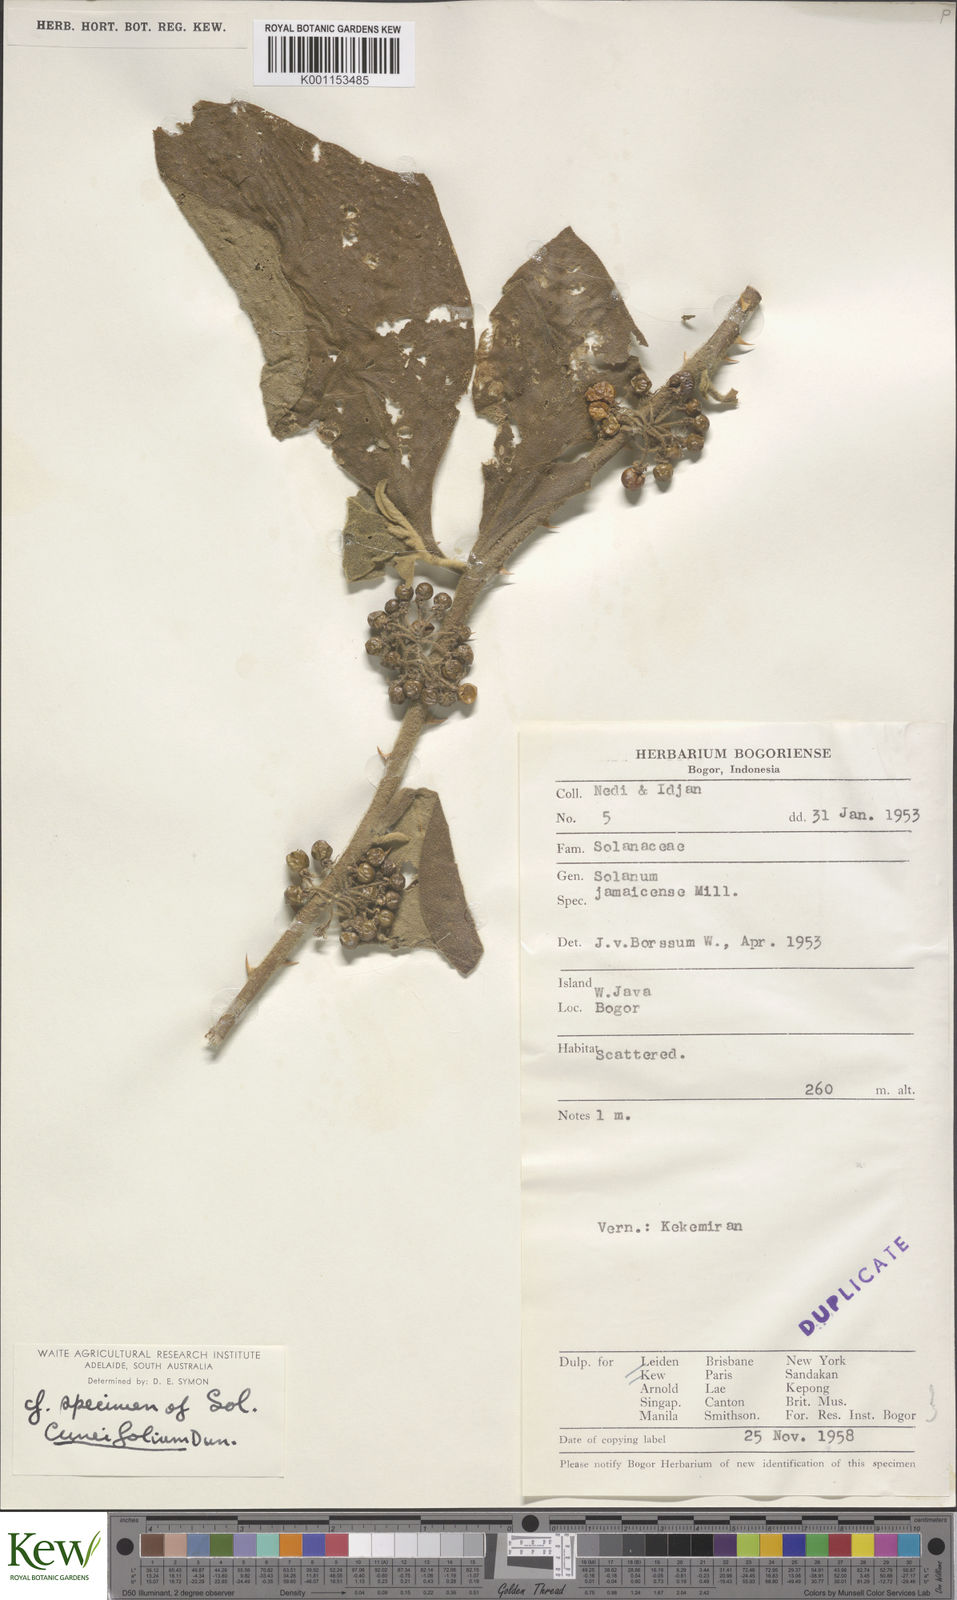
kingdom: Plantae
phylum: Tracheophyta
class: Magnoliopsida
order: Solanales
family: Solanaceae
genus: Solanum
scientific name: Solanum jamaicense
